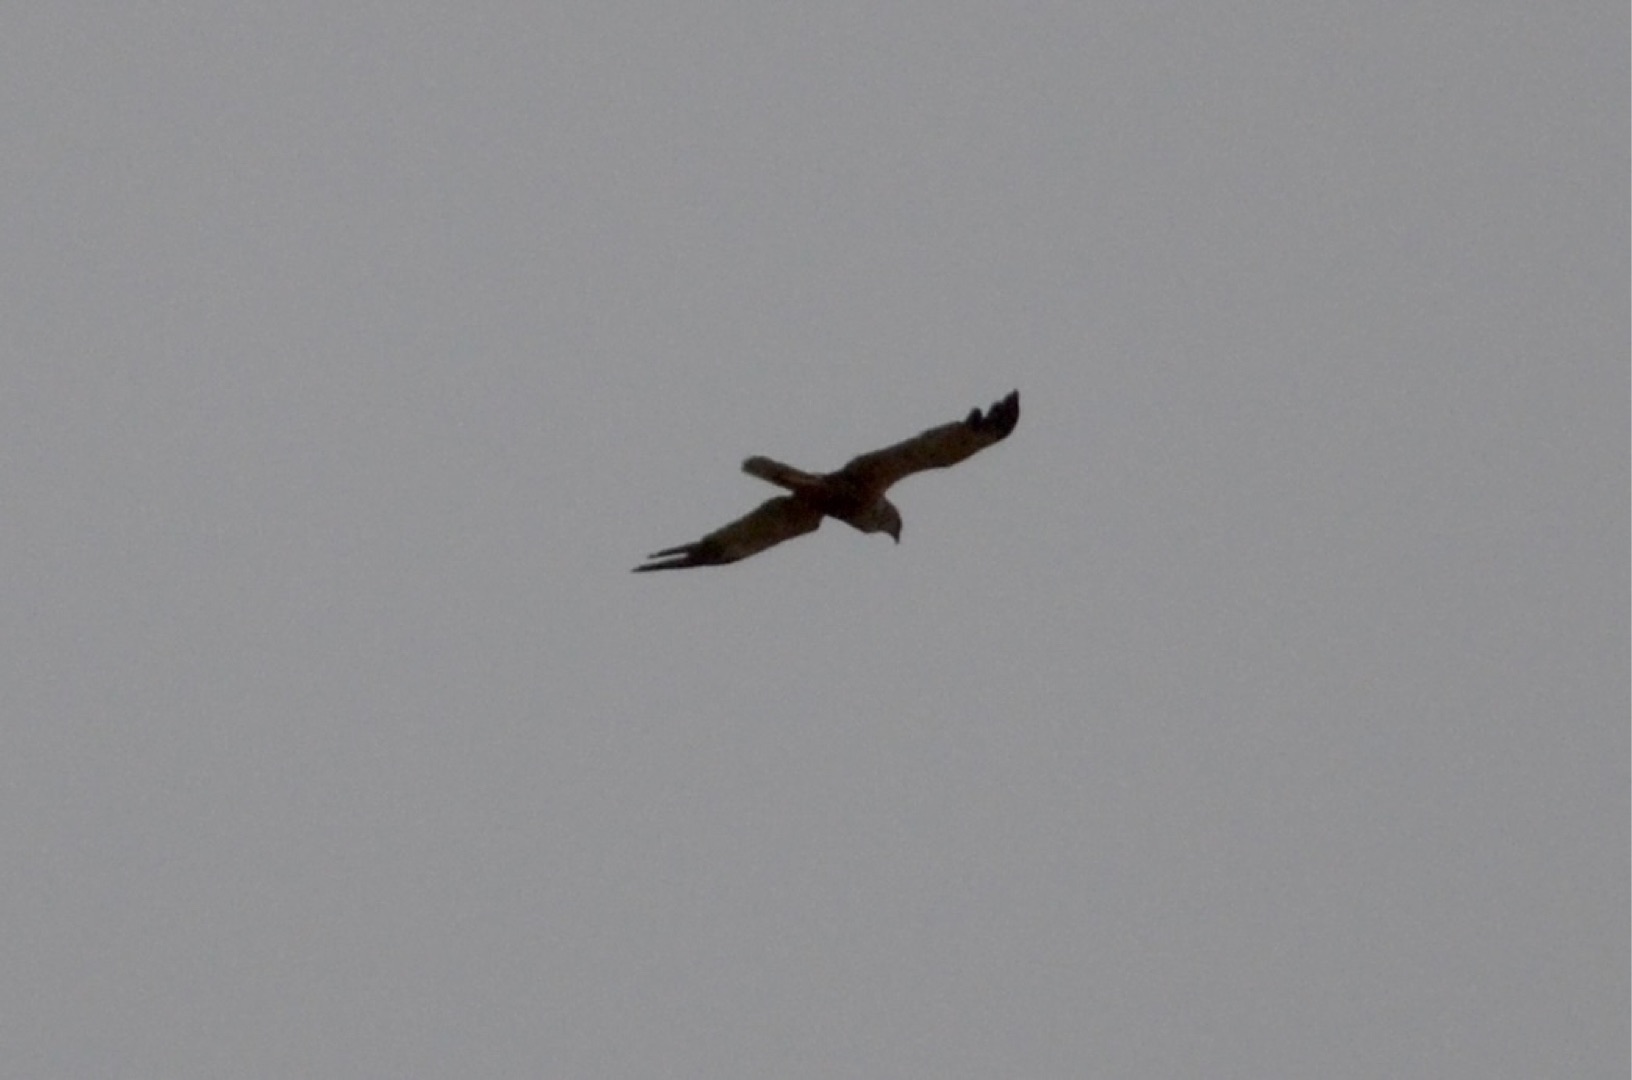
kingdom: Animalia
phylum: Chordata
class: Aves
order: Accipitriformes
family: Accipitridae
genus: Circus
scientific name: Circus aeruginosus
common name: Rørhøg
